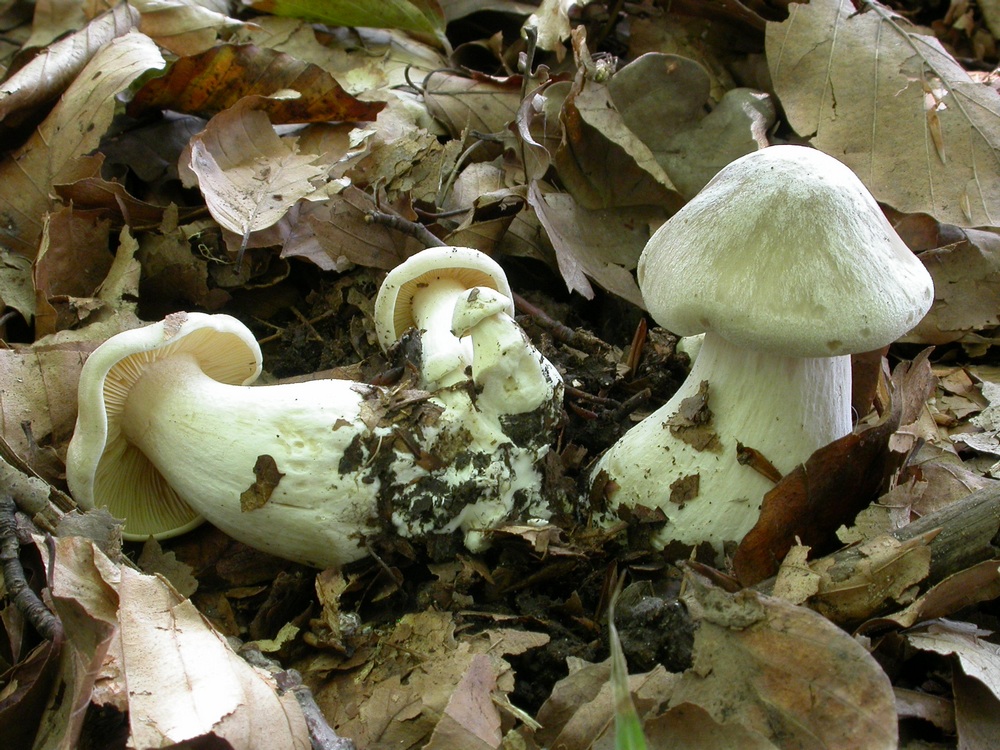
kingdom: Fungi
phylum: Basidiomycota
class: Agaricomycetes
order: Agaricales
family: Entolomataceae
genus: Entoloma
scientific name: Entoloma sinuatum
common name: giftig rødblad
